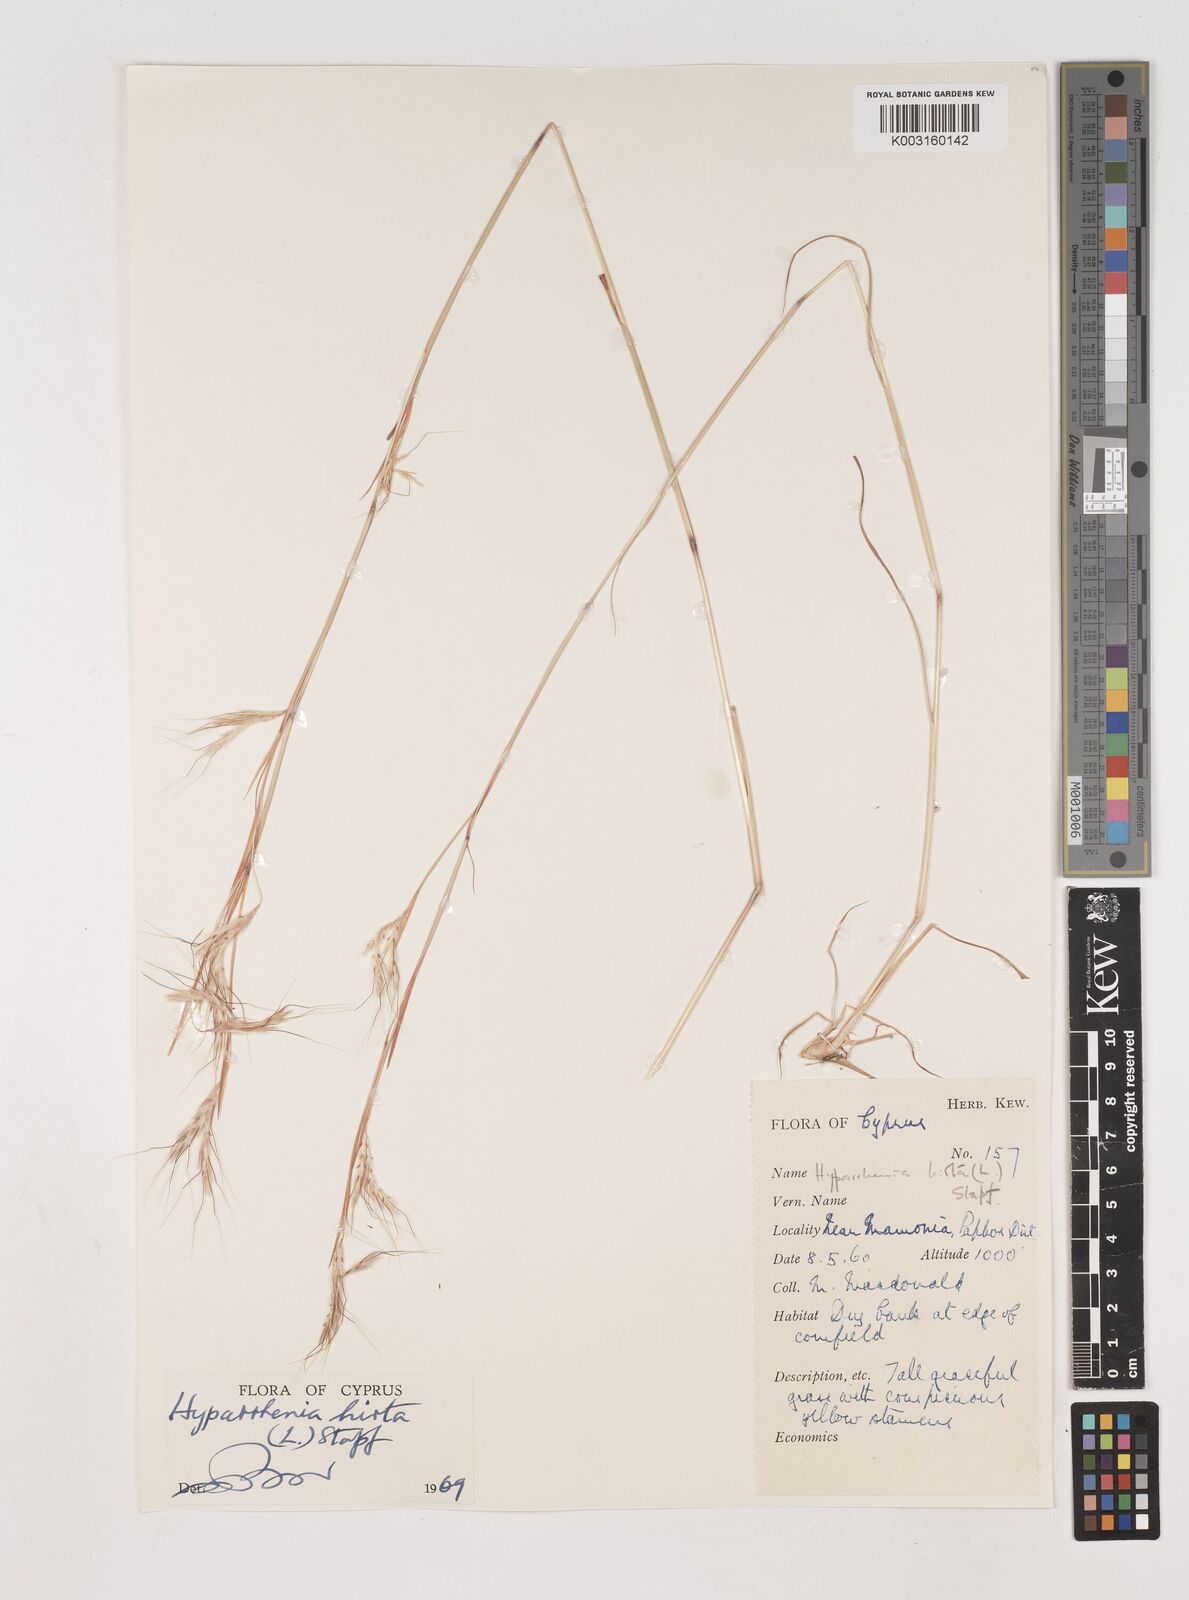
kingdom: Plantae
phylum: Tracheophyta
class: Liliopsida
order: Poales
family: Poaceae
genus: Hyparrhenia
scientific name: Hyparrhenia hirta
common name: Thatching grass
